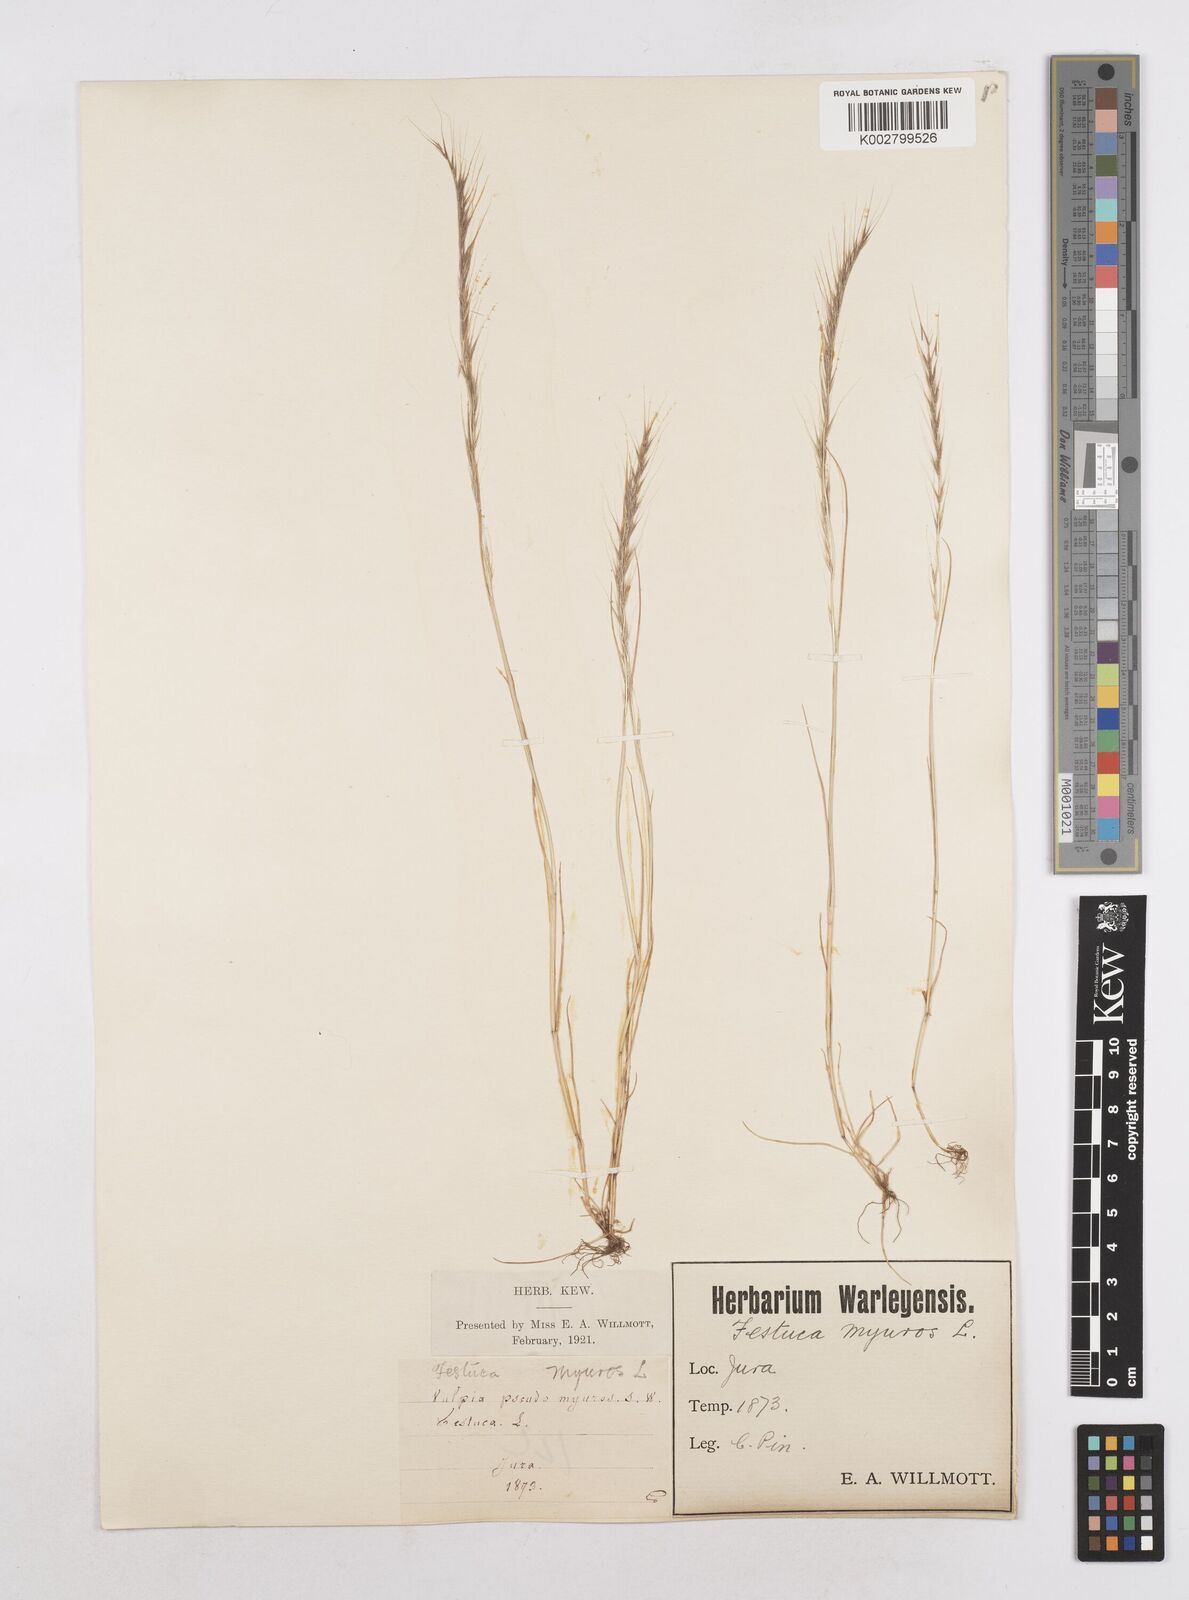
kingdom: Plantae
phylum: Tracheophyta
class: Liliopsida
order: Poales
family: Poaceae
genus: Festuca
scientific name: Festuca myuros
